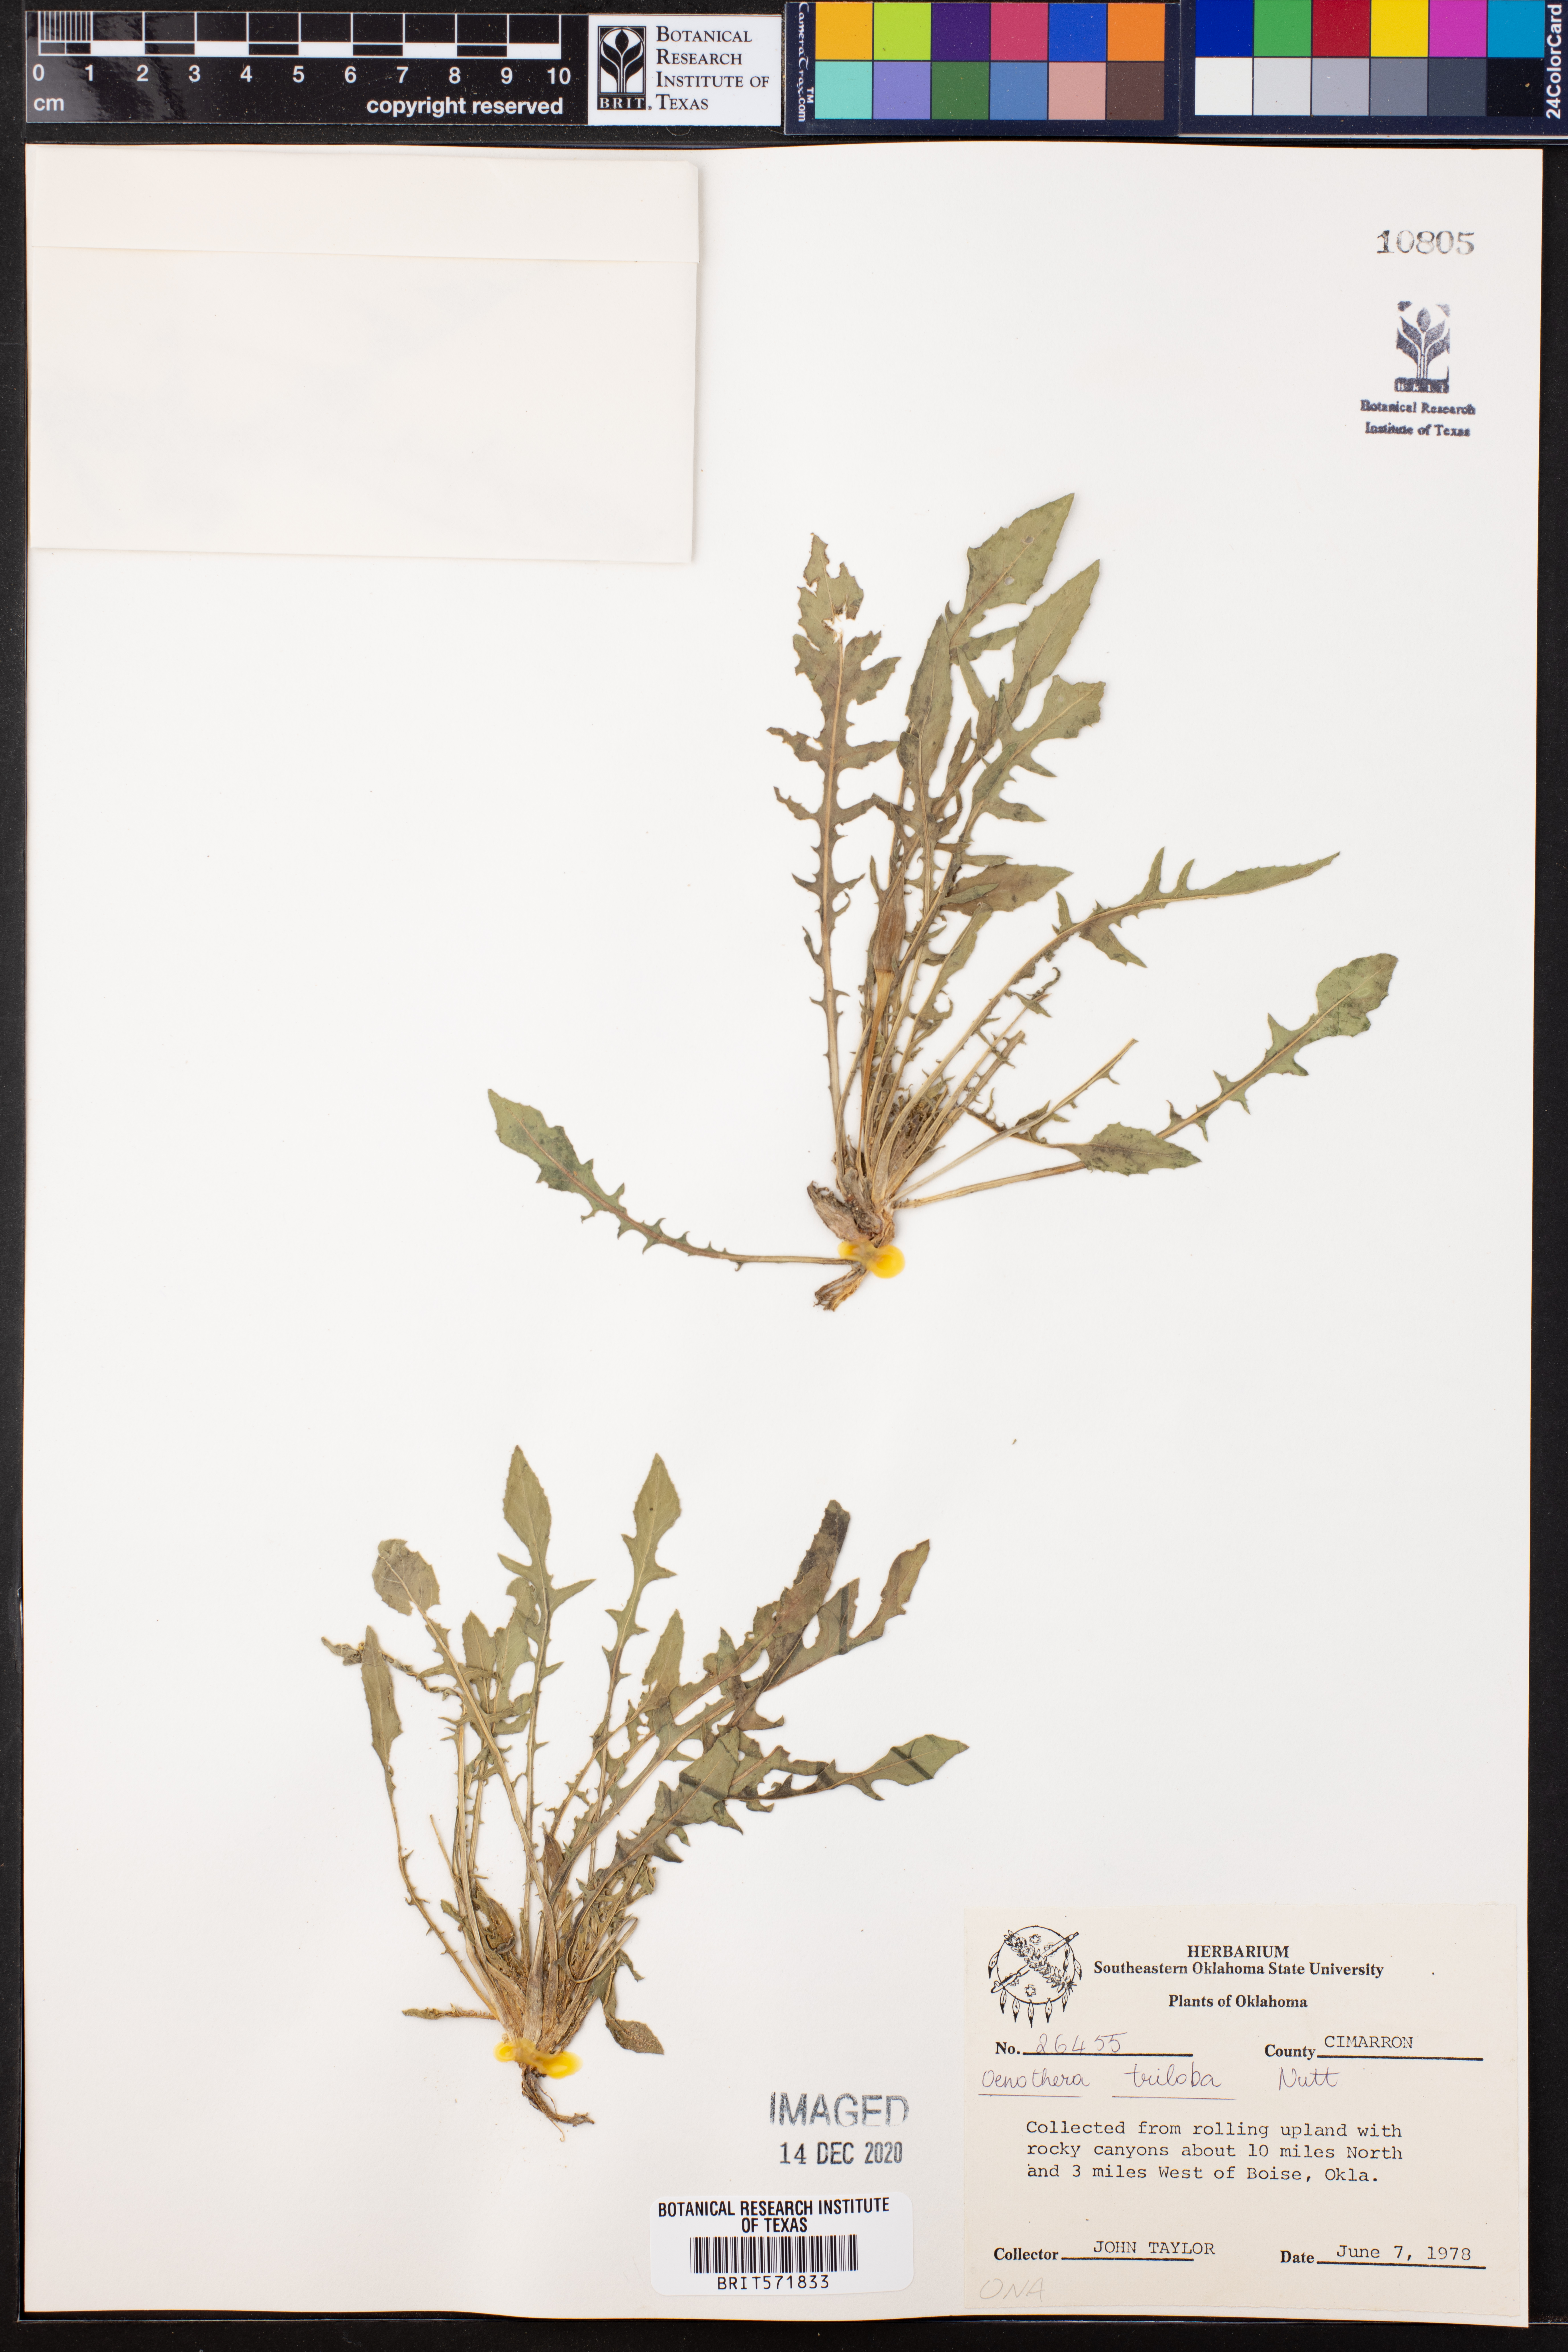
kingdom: Plantae
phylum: Tracheophyta
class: Magnoliopsida
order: Myrtales
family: Onagraceae
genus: Oenothera
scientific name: Oenothera triloba
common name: Sessile evening-primrose
